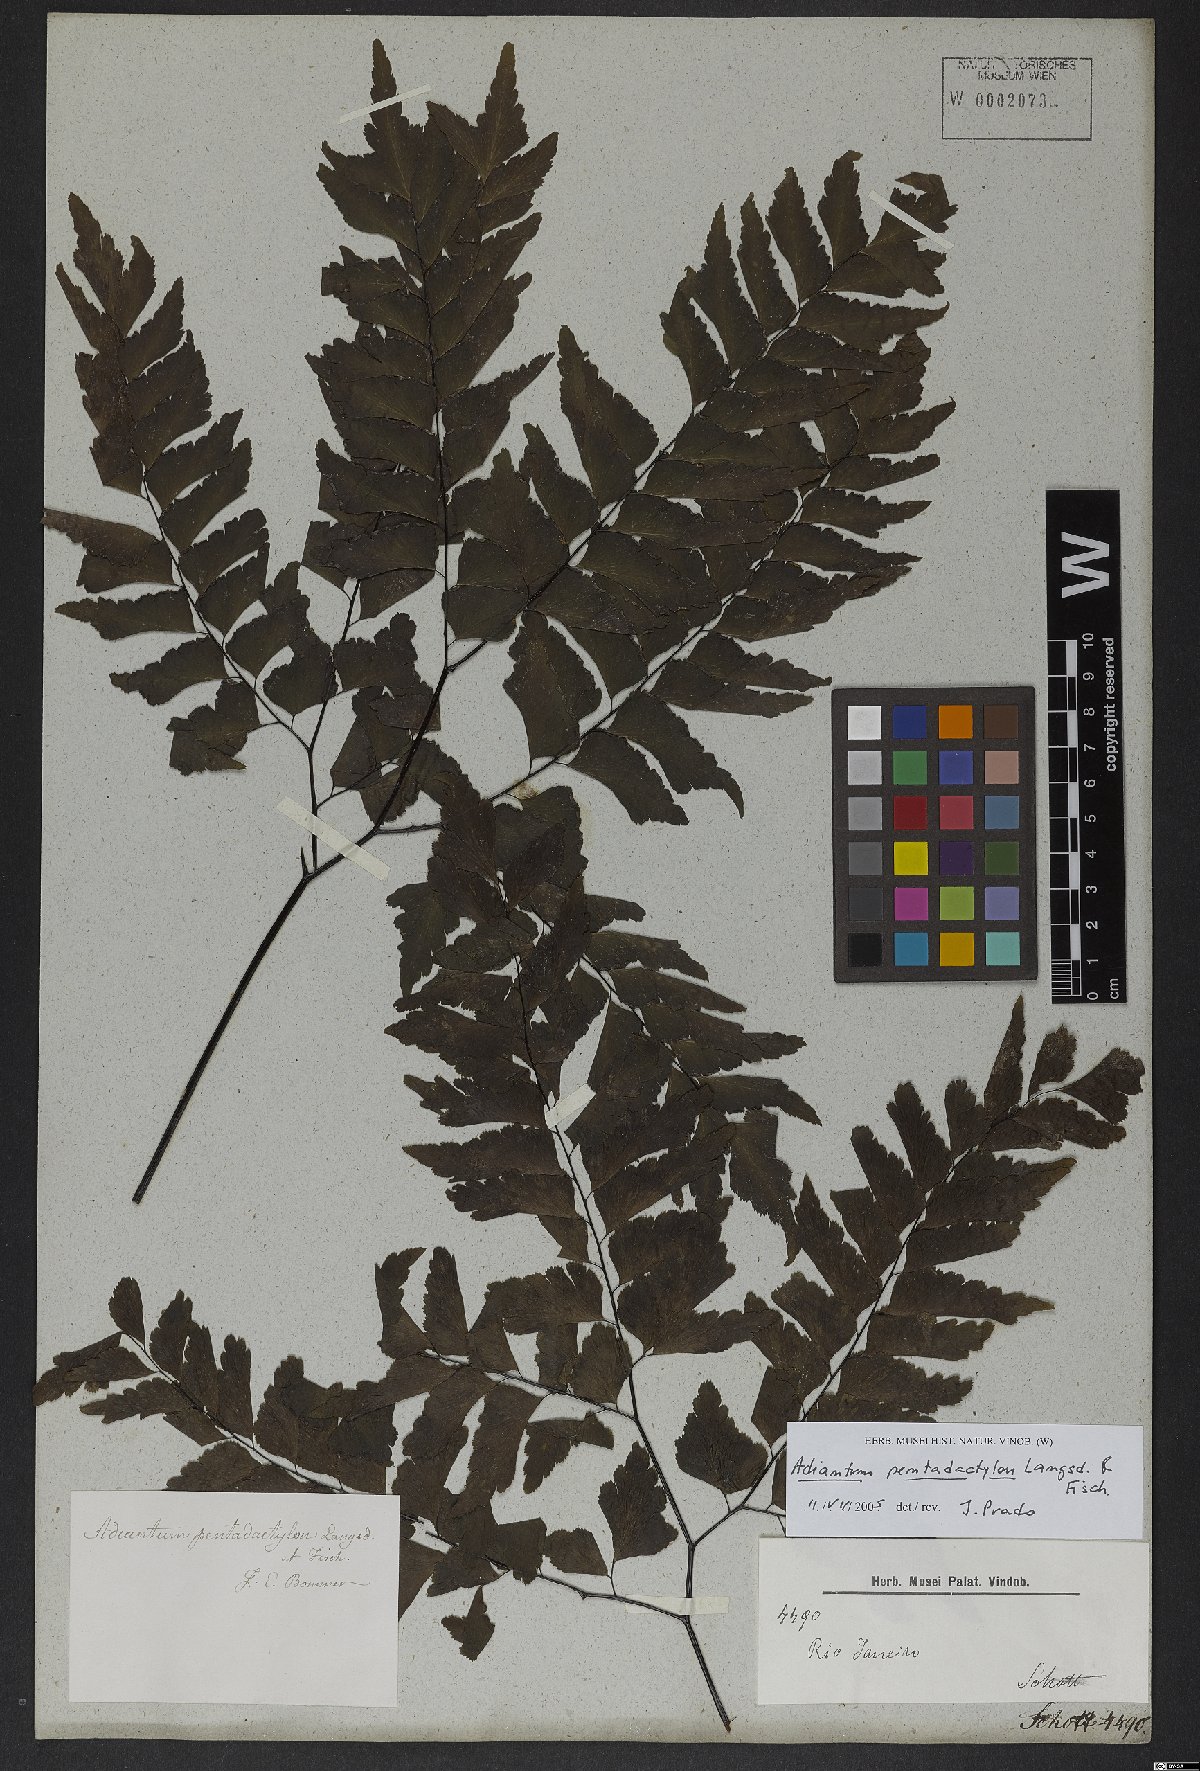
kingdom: Plantae
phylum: Tracheophyta
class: Polypodiopsida
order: Polypodiales
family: Pteridaceae
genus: Adiantum
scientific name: Adiantum pentadactylon
